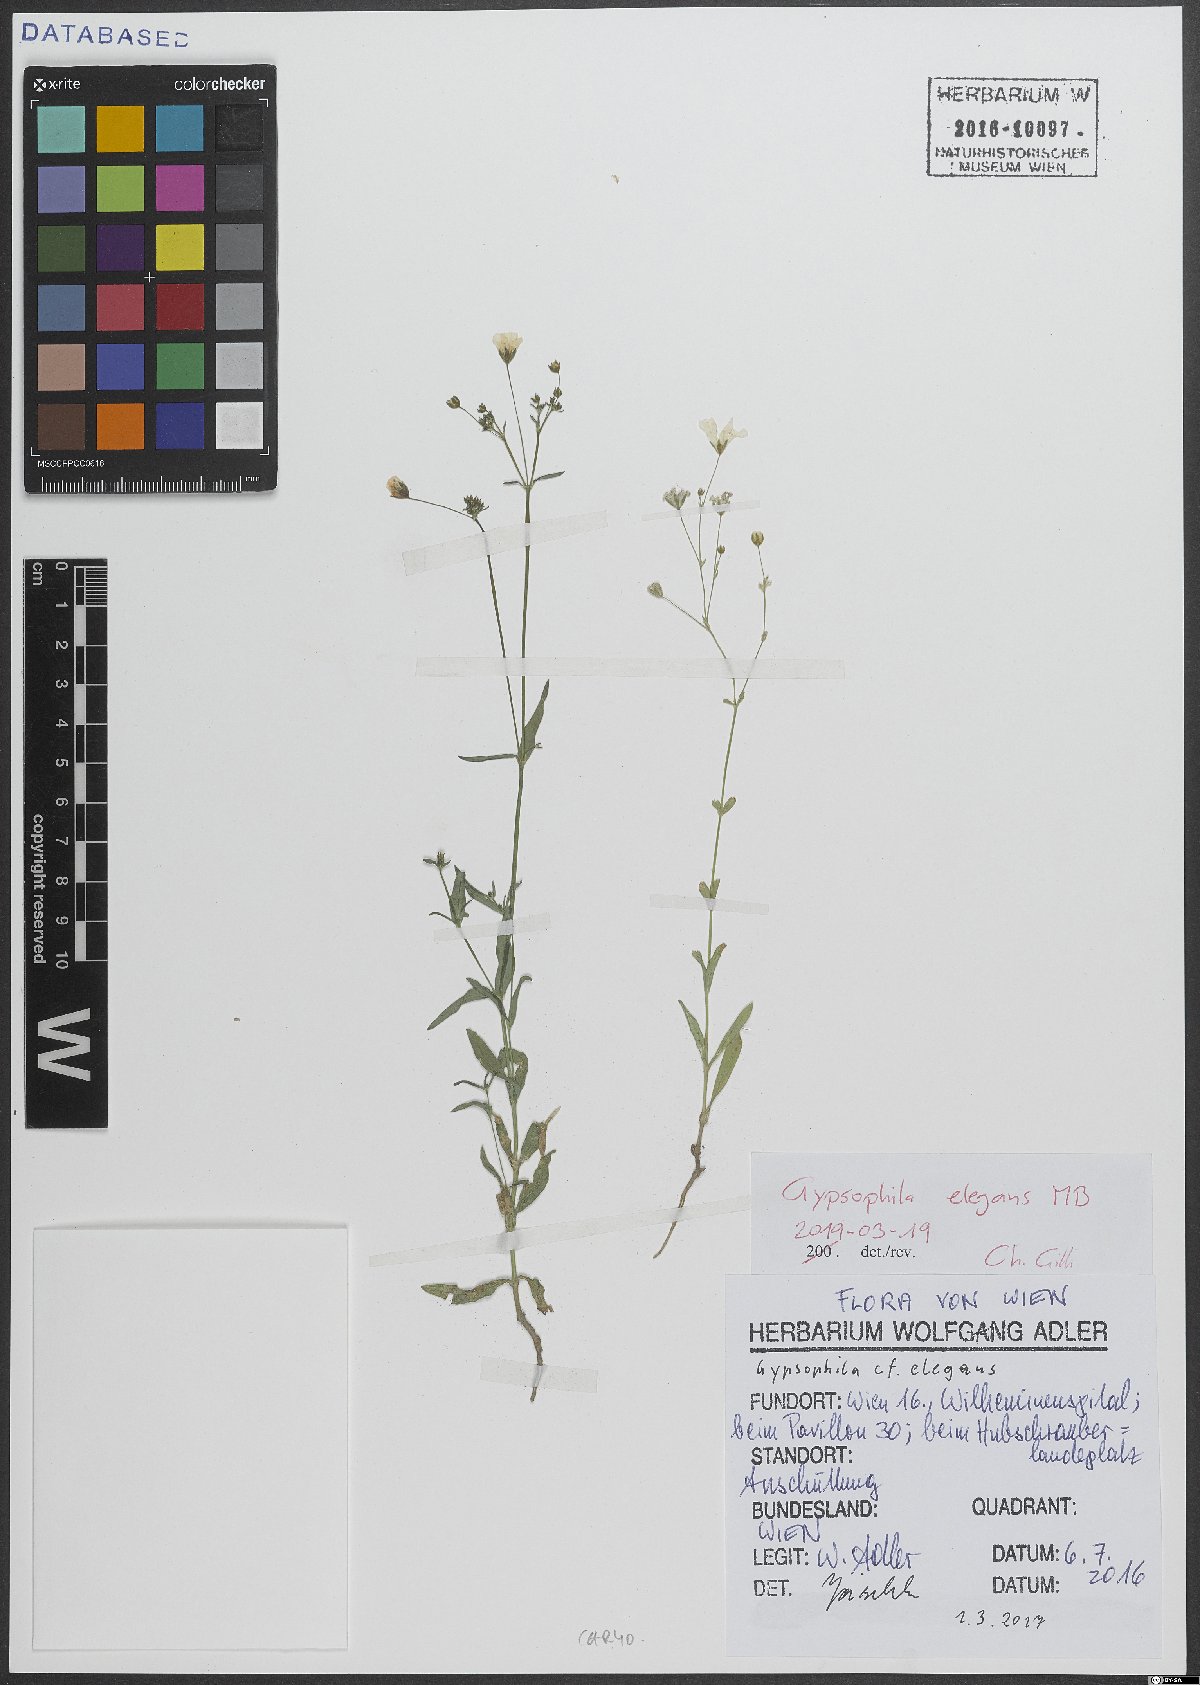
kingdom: Plantae
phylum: Tracheophyta
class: Magnoliopsida
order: Caryophyllales
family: Caryophyllaceae
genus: Gypsophila
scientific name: Gypsophila elegans
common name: Showy baby's-breath
